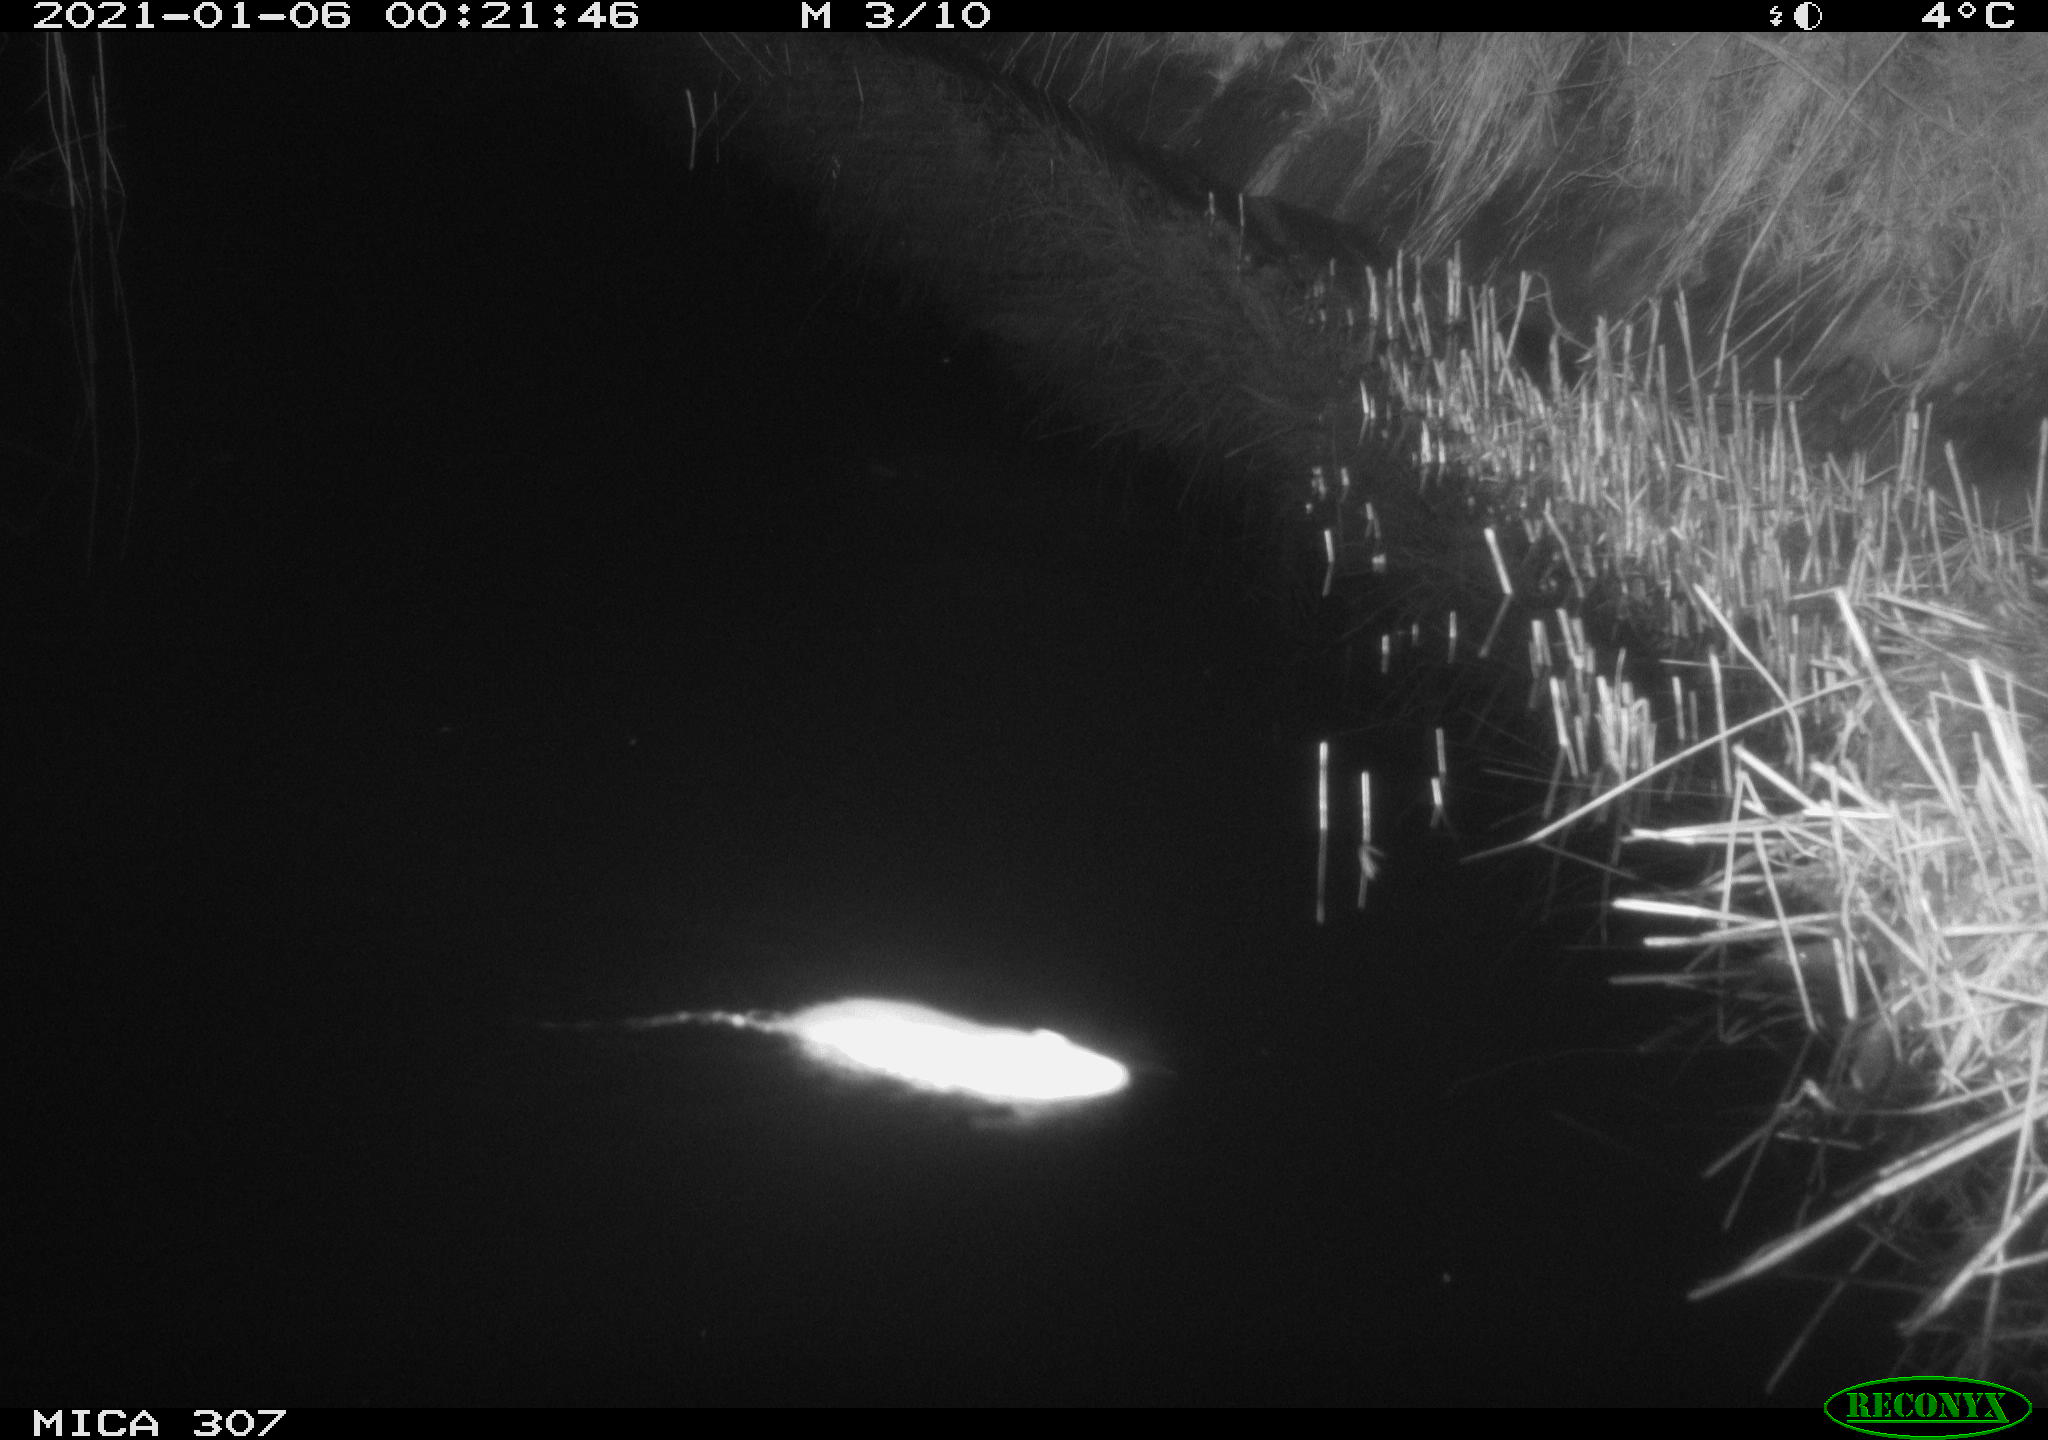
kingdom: Animalia
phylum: Chordata
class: Mammalia
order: Rodentia
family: Muridae
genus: Rattus
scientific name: Rattus norvegicus
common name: Brown rat
